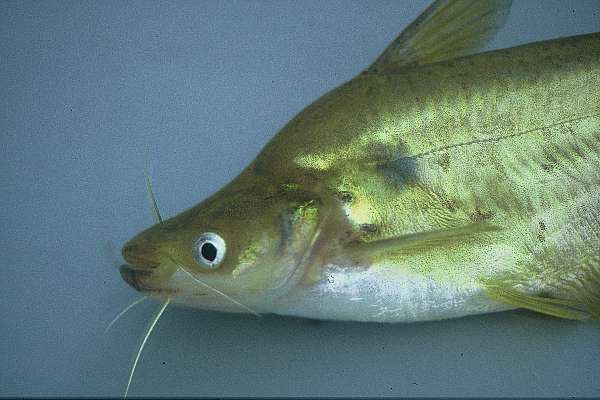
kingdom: Animalia
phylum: Chordata
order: Siluriformes
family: Schilbeidae
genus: Schilbe
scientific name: Schilbe intermedius
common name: Silver catfish
